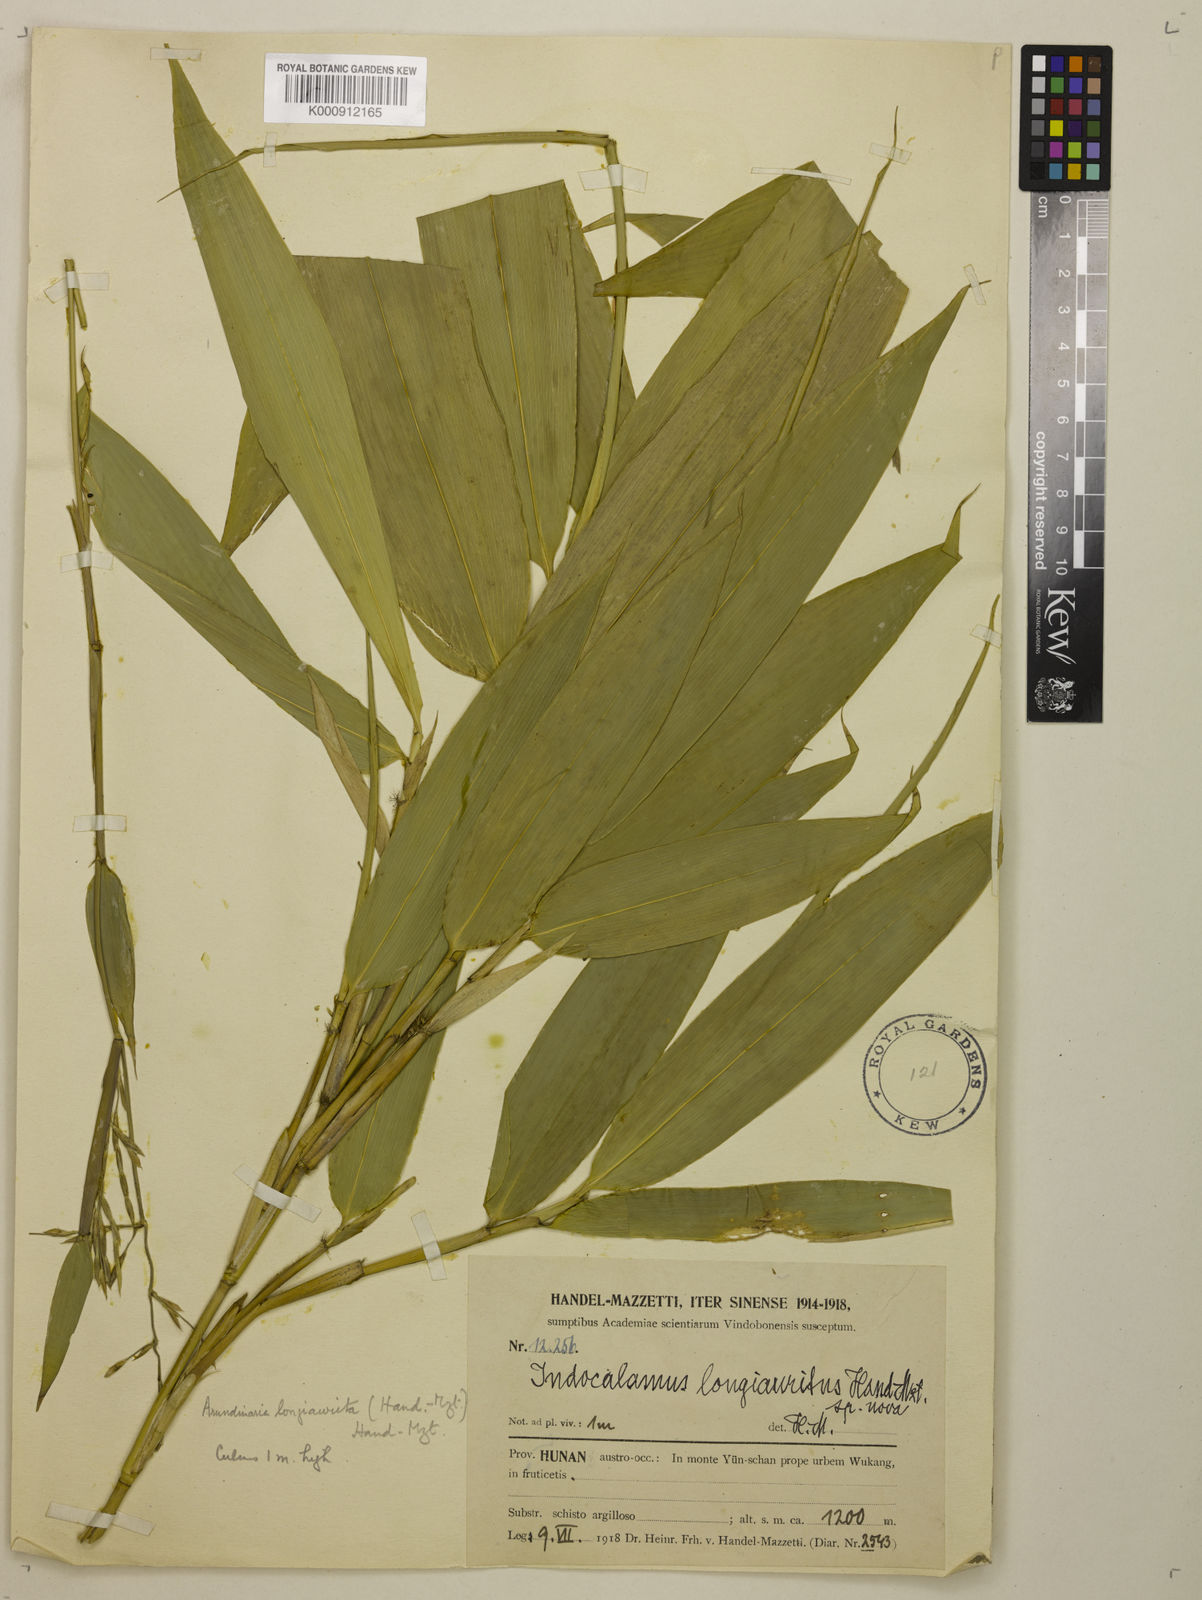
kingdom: Plantae
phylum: Tracheophyta
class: Liliopsida
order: Poales
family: Poaceae
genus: Indocalamus
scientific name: Indocalamus longiauritus
